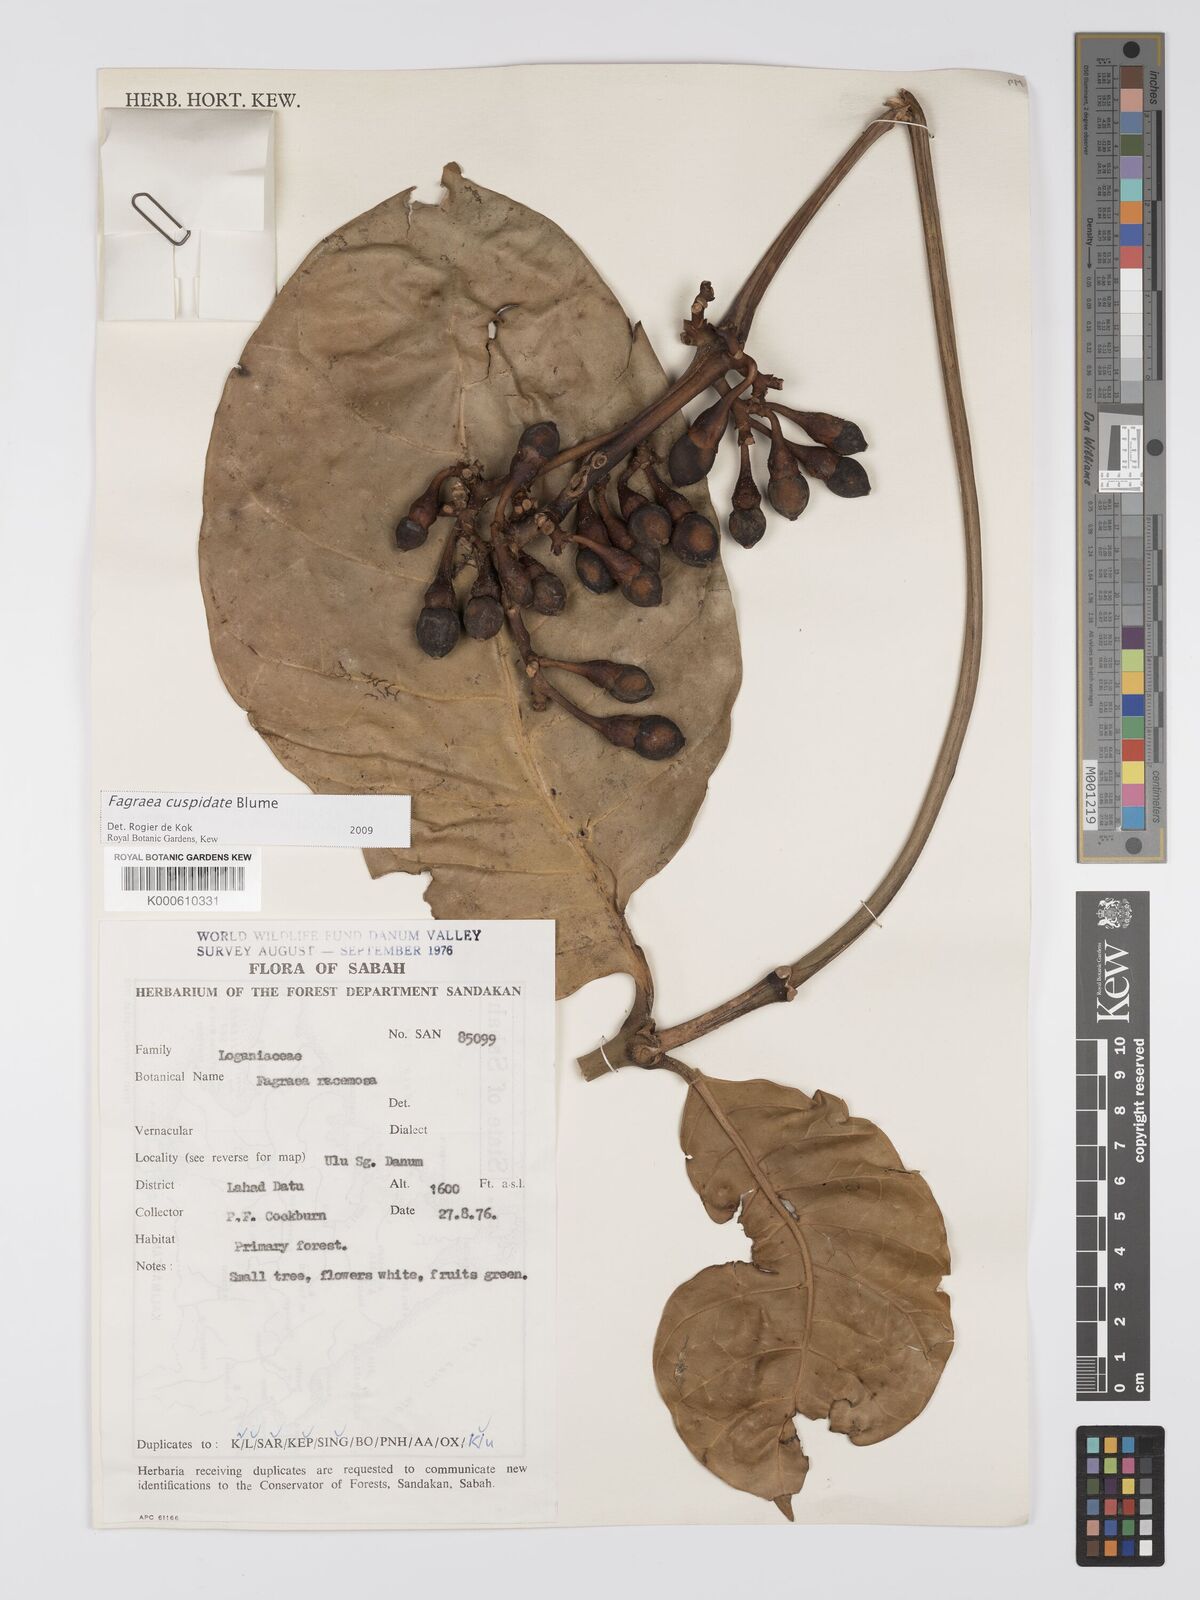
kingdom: Plantae
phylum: Tracheophyta
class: Magnoliopsida
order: Gentianales
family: Gentianaceae
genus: Utania
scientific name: Utania cuspidata
